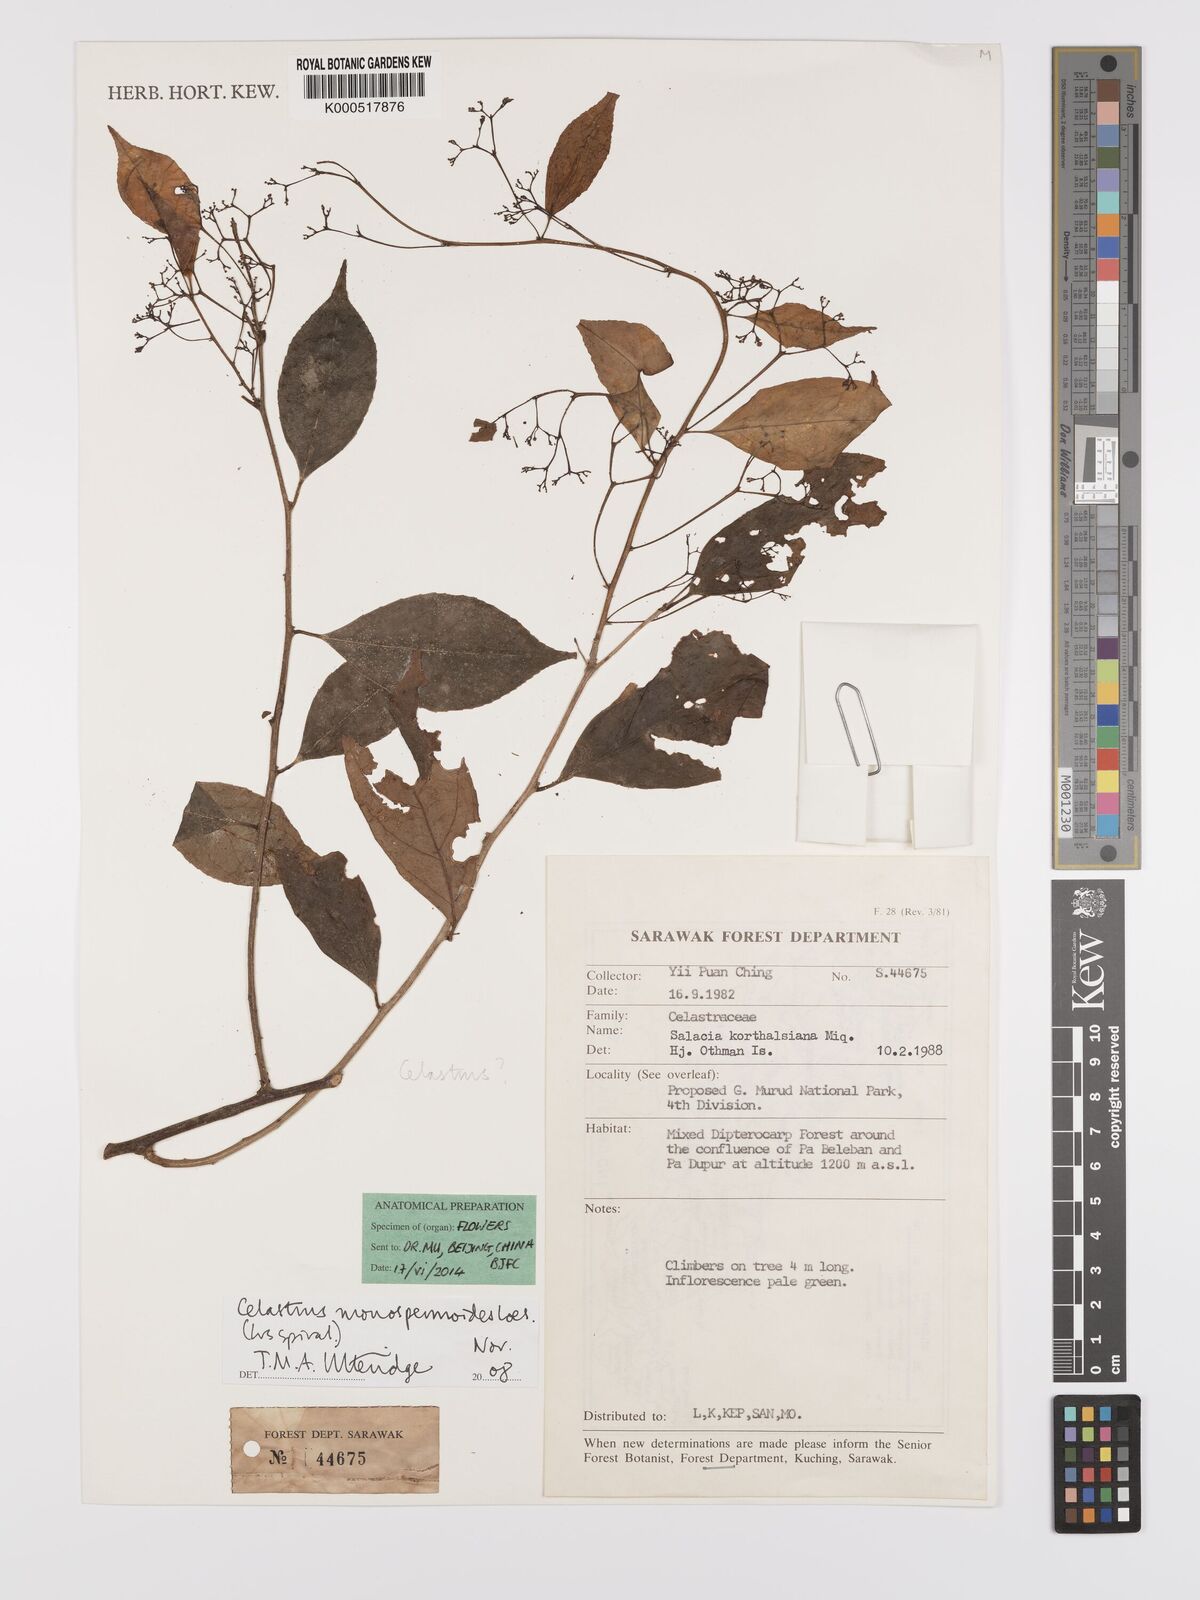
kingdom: Plantae
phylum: Tracheophyta
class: Magnoliopsida
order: Celastrales
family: Celastraceae
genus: Celastrus
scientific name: Celastrus monospermoides
